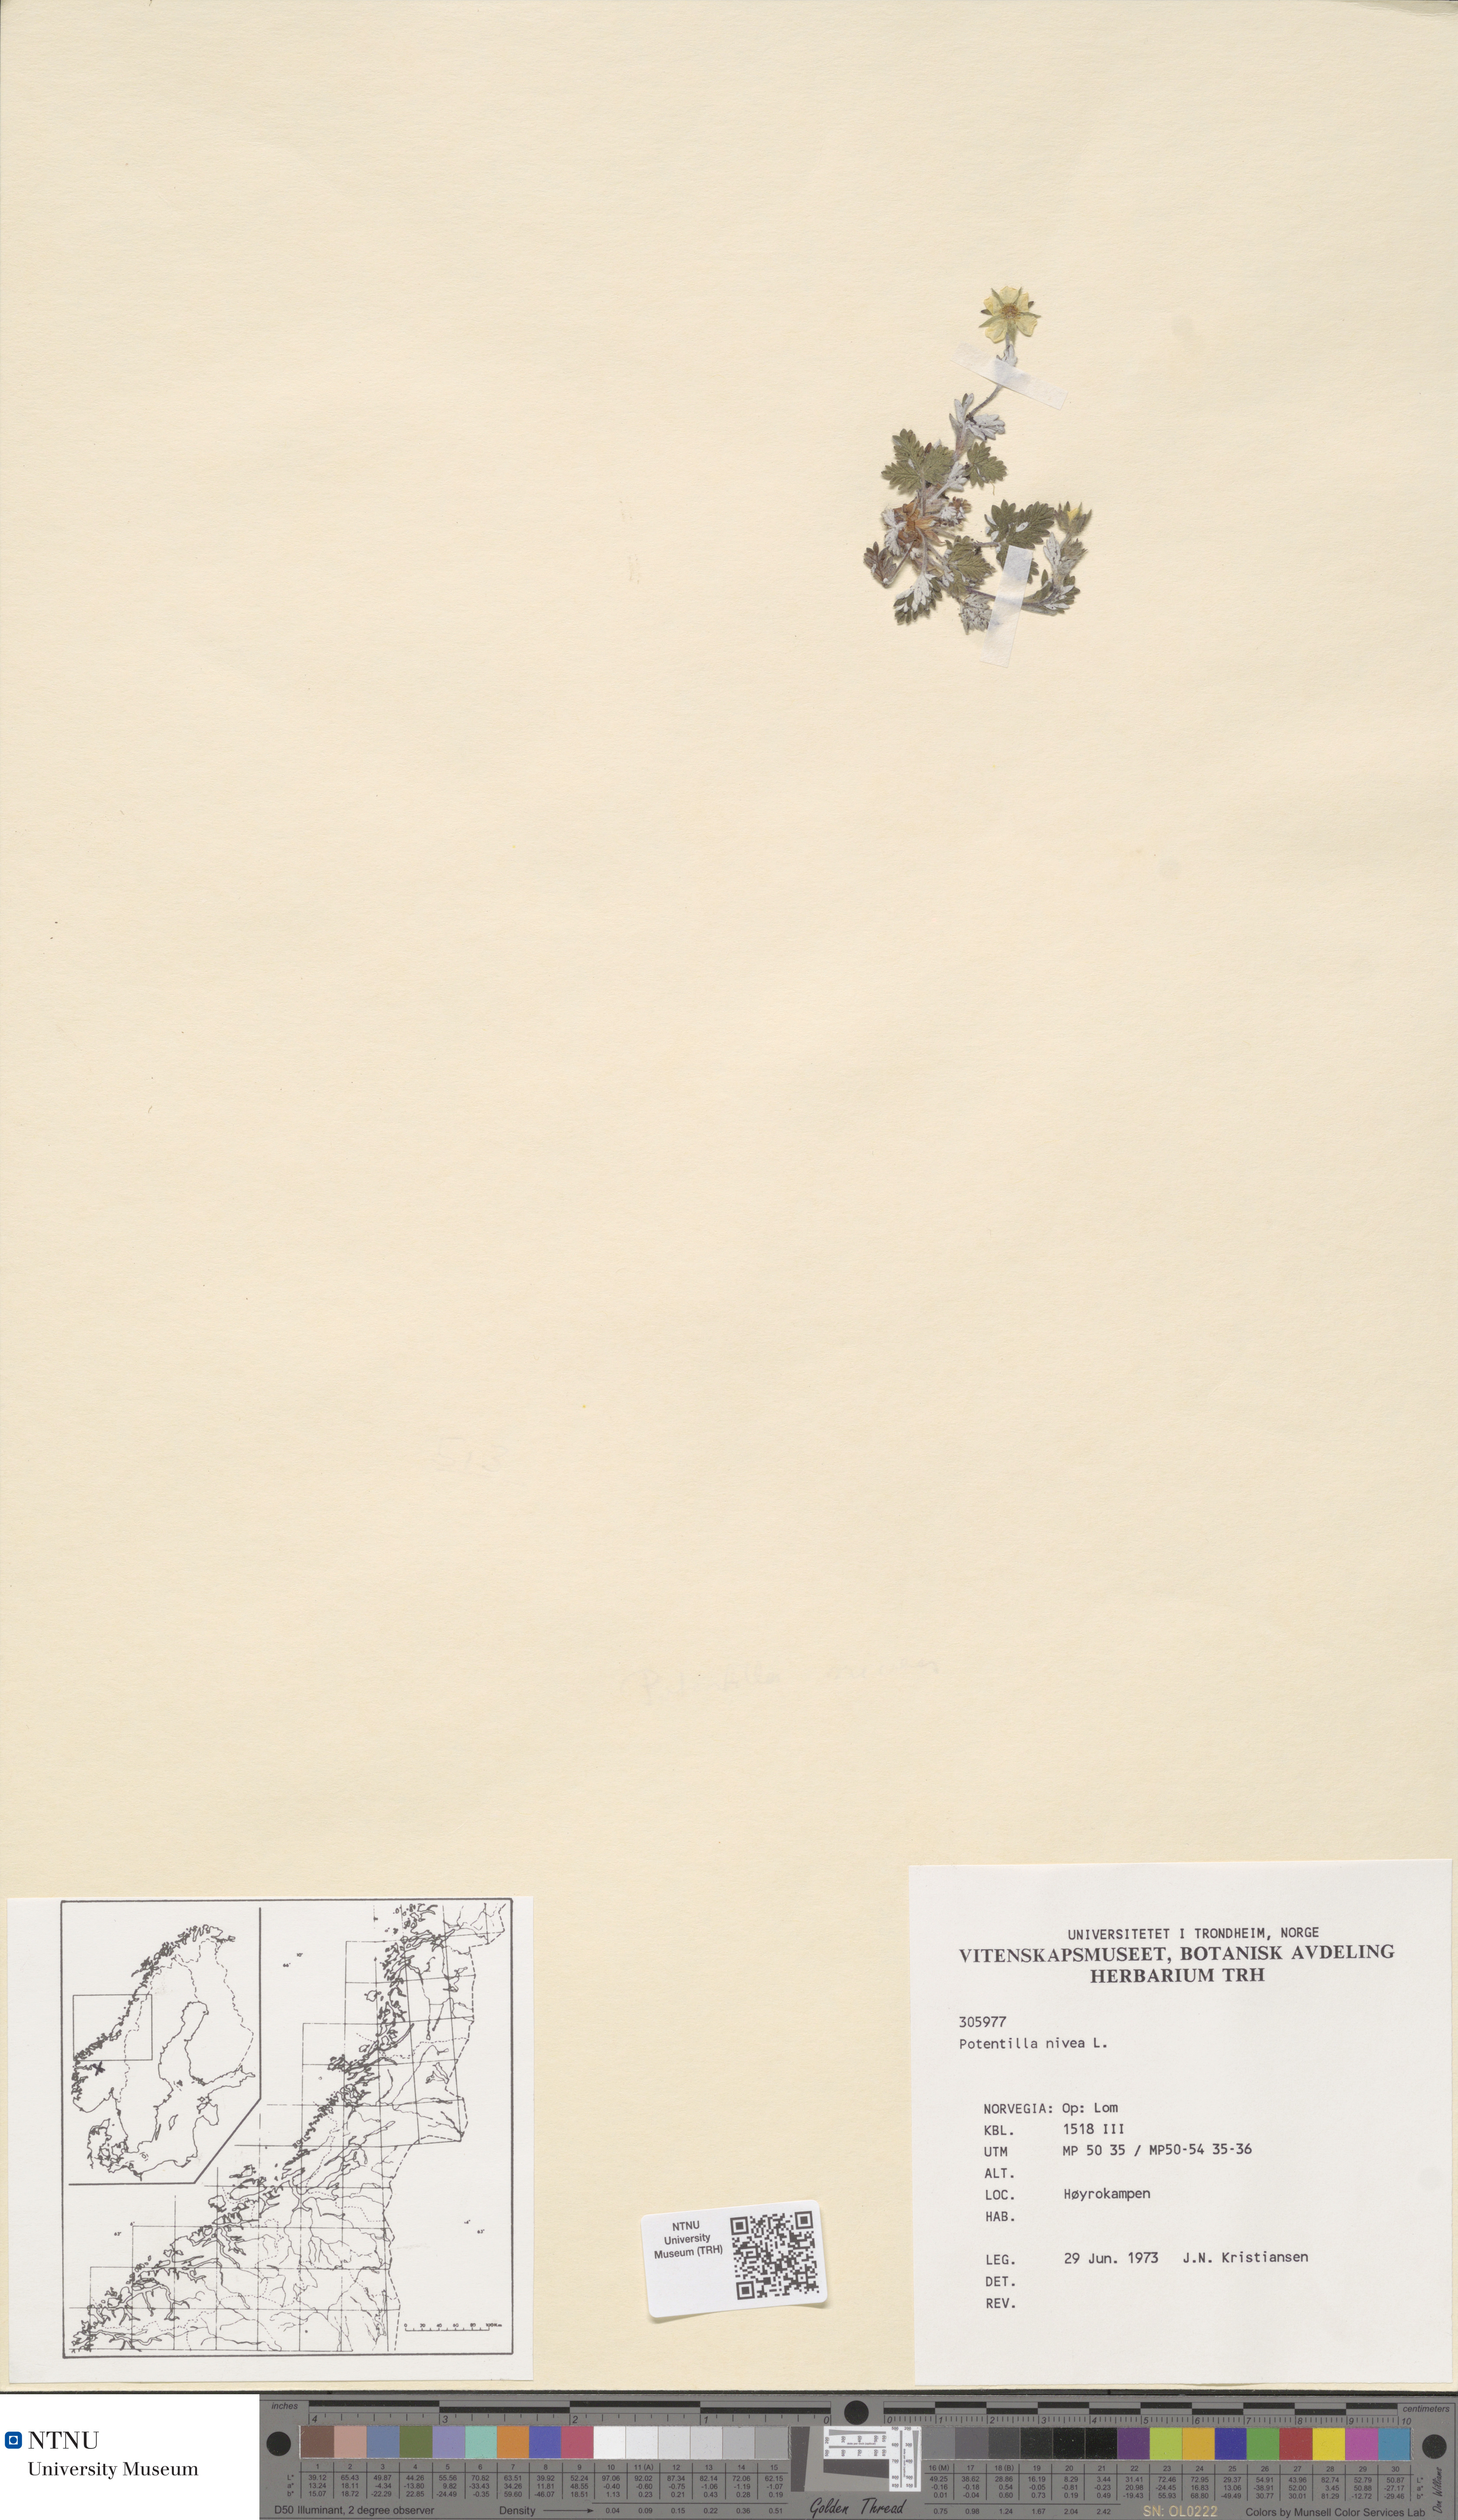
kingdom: Plantae
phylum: Tracheophyta
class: Magnoliopsida
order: Rosales
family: Rosaceae
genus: Potentilla
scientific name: Potentilla nivea
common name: Snow cinquefoil
